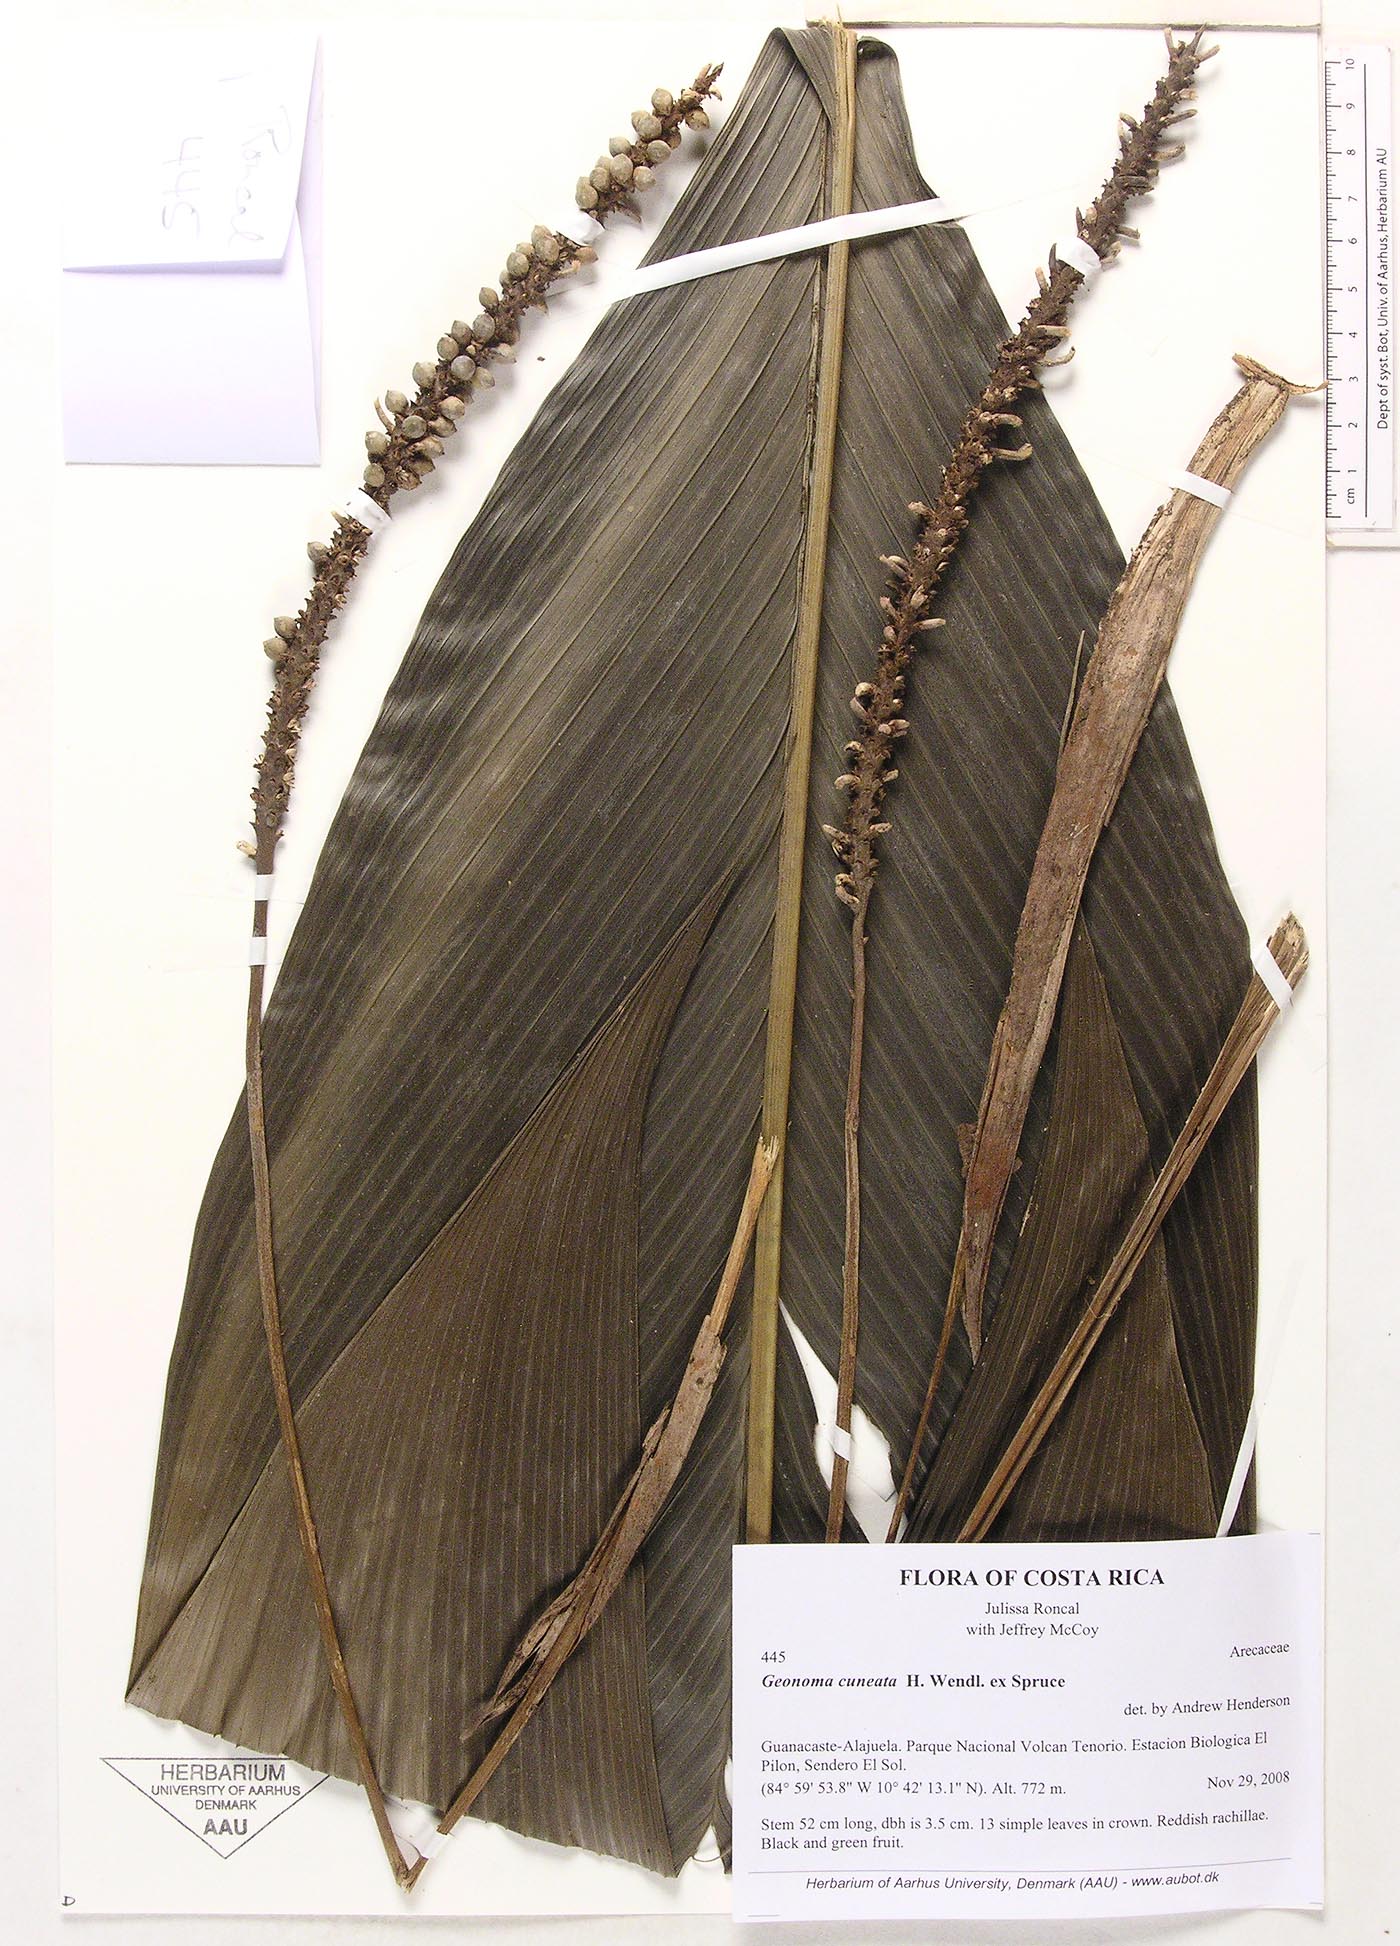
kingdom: Plantae
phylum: Tracheophyta
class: Liliopsida
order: Arecales
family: Arecaceae
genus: Geonoma
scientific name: Geonoma cuneata
